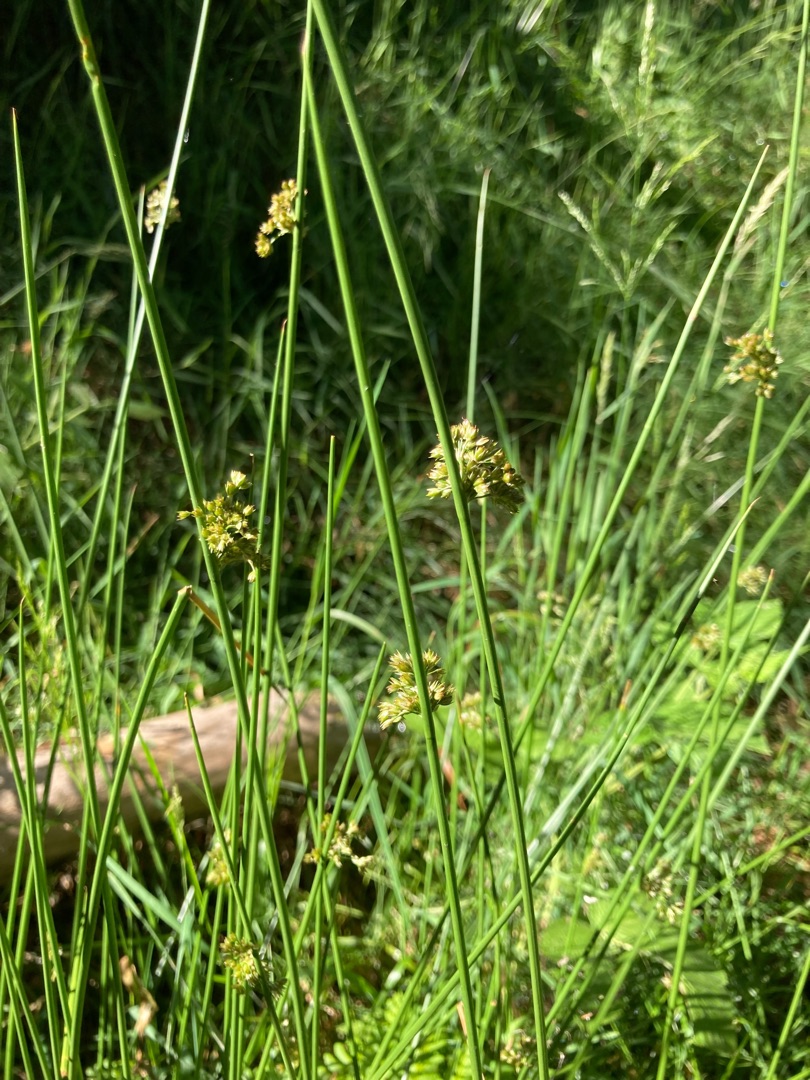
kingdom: Plantae
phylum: Tracheophyta
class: Liliopsida
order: Poales
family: Juncaceae
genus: Juncus
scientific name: Juncus effusus
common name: Lyse-siv
